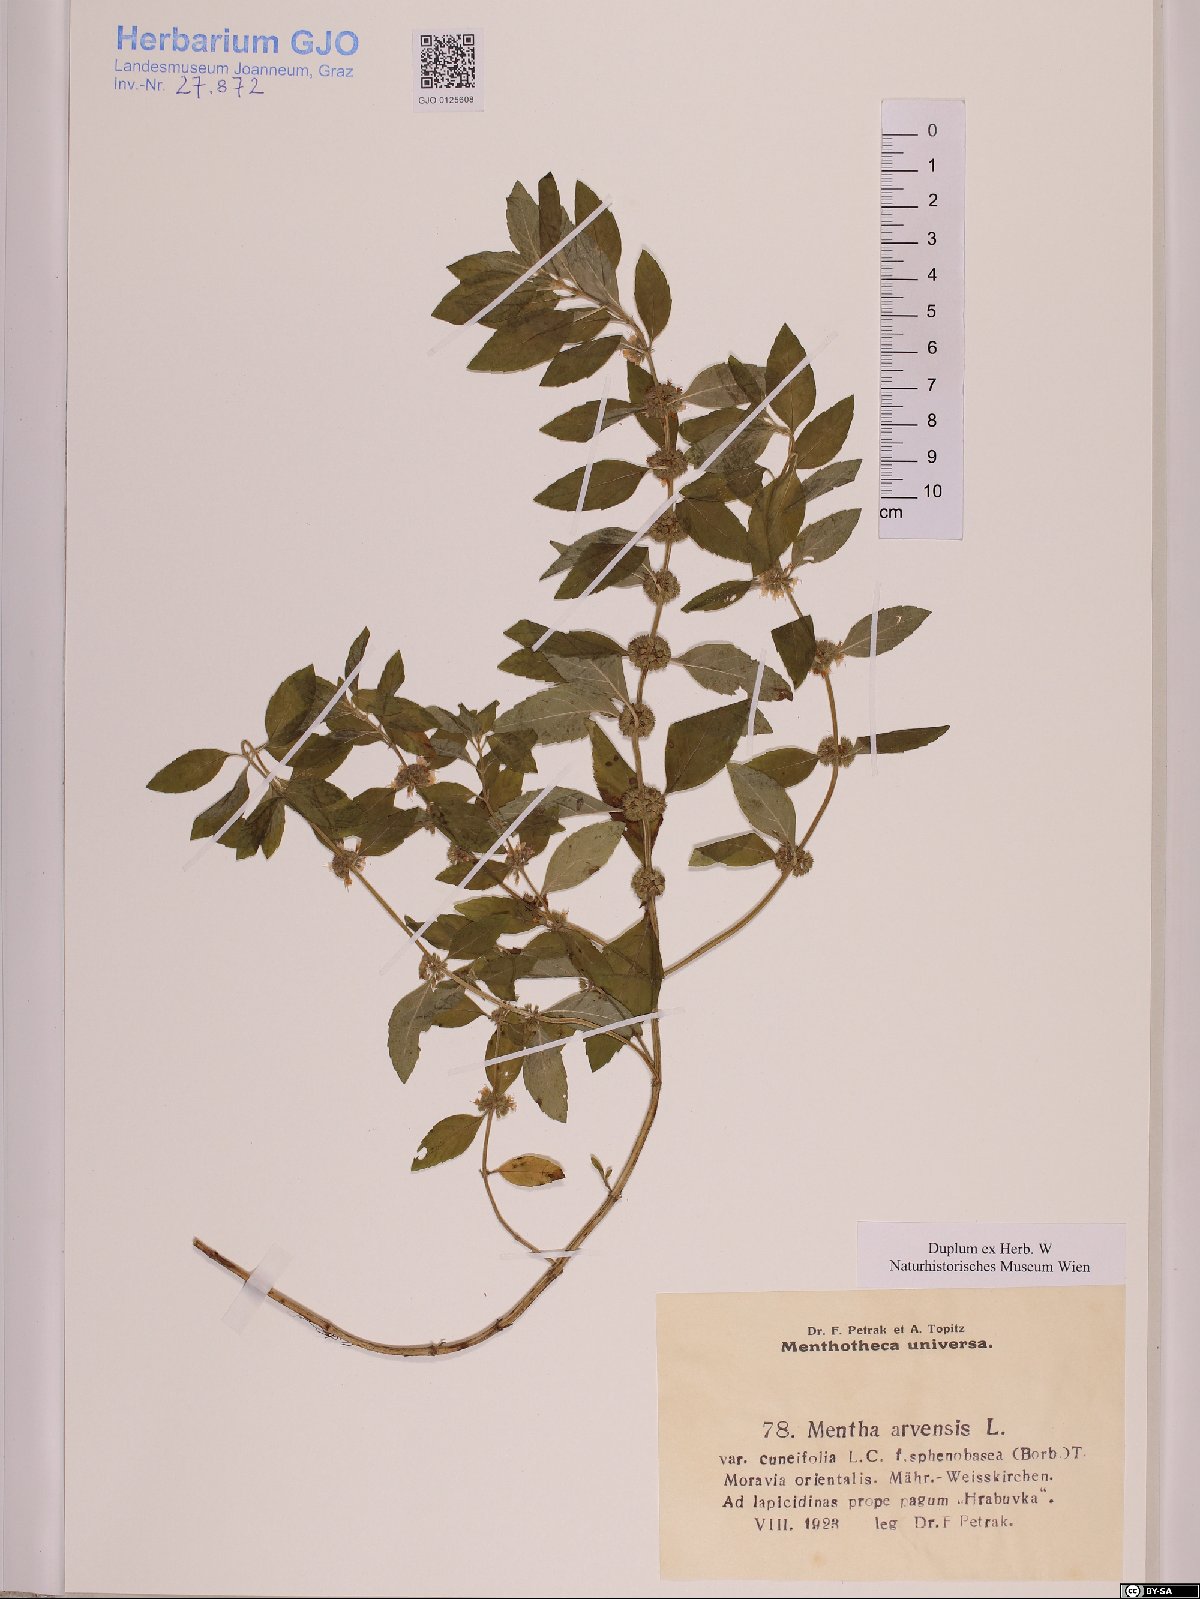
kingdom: Plantae
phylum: Tracheophyta
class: Magnoliopsida
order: Lamiales
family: Lamiaceae
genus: Mentha
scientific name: Mentha arvensis
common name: Corn mint
